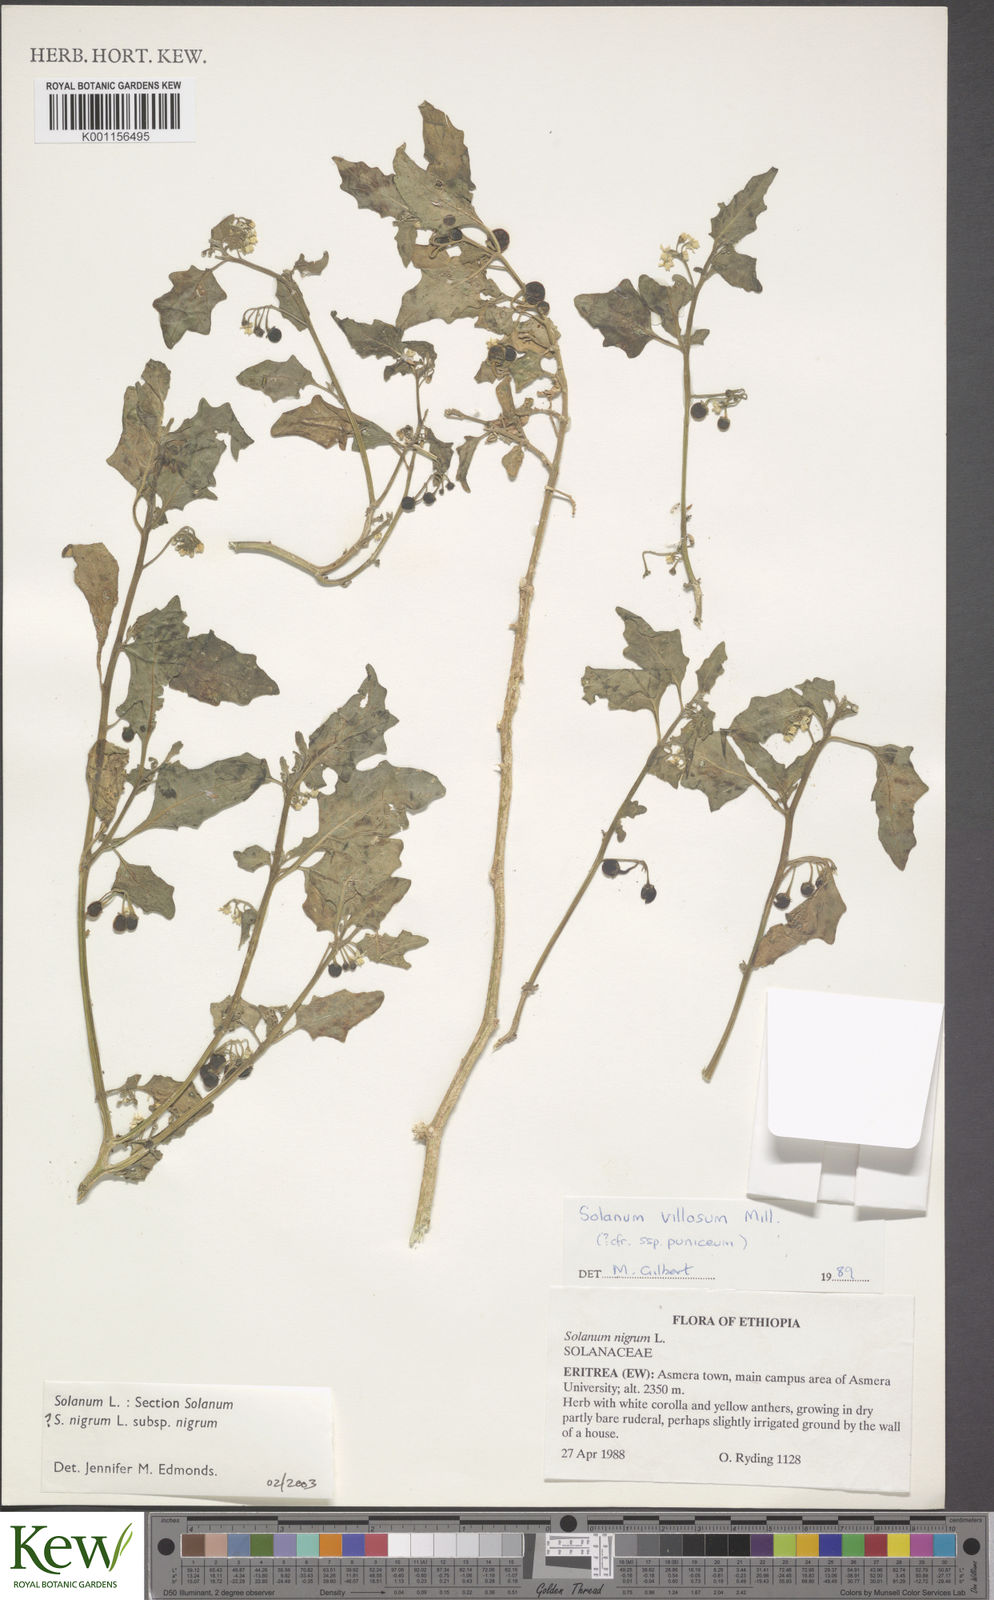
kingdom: Plantae
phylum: Tracheophyta
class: Magnoliopsida
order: Solanales
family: Solanaceae
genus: Solanum
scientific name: Solanum villosum
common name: Red nightshade
